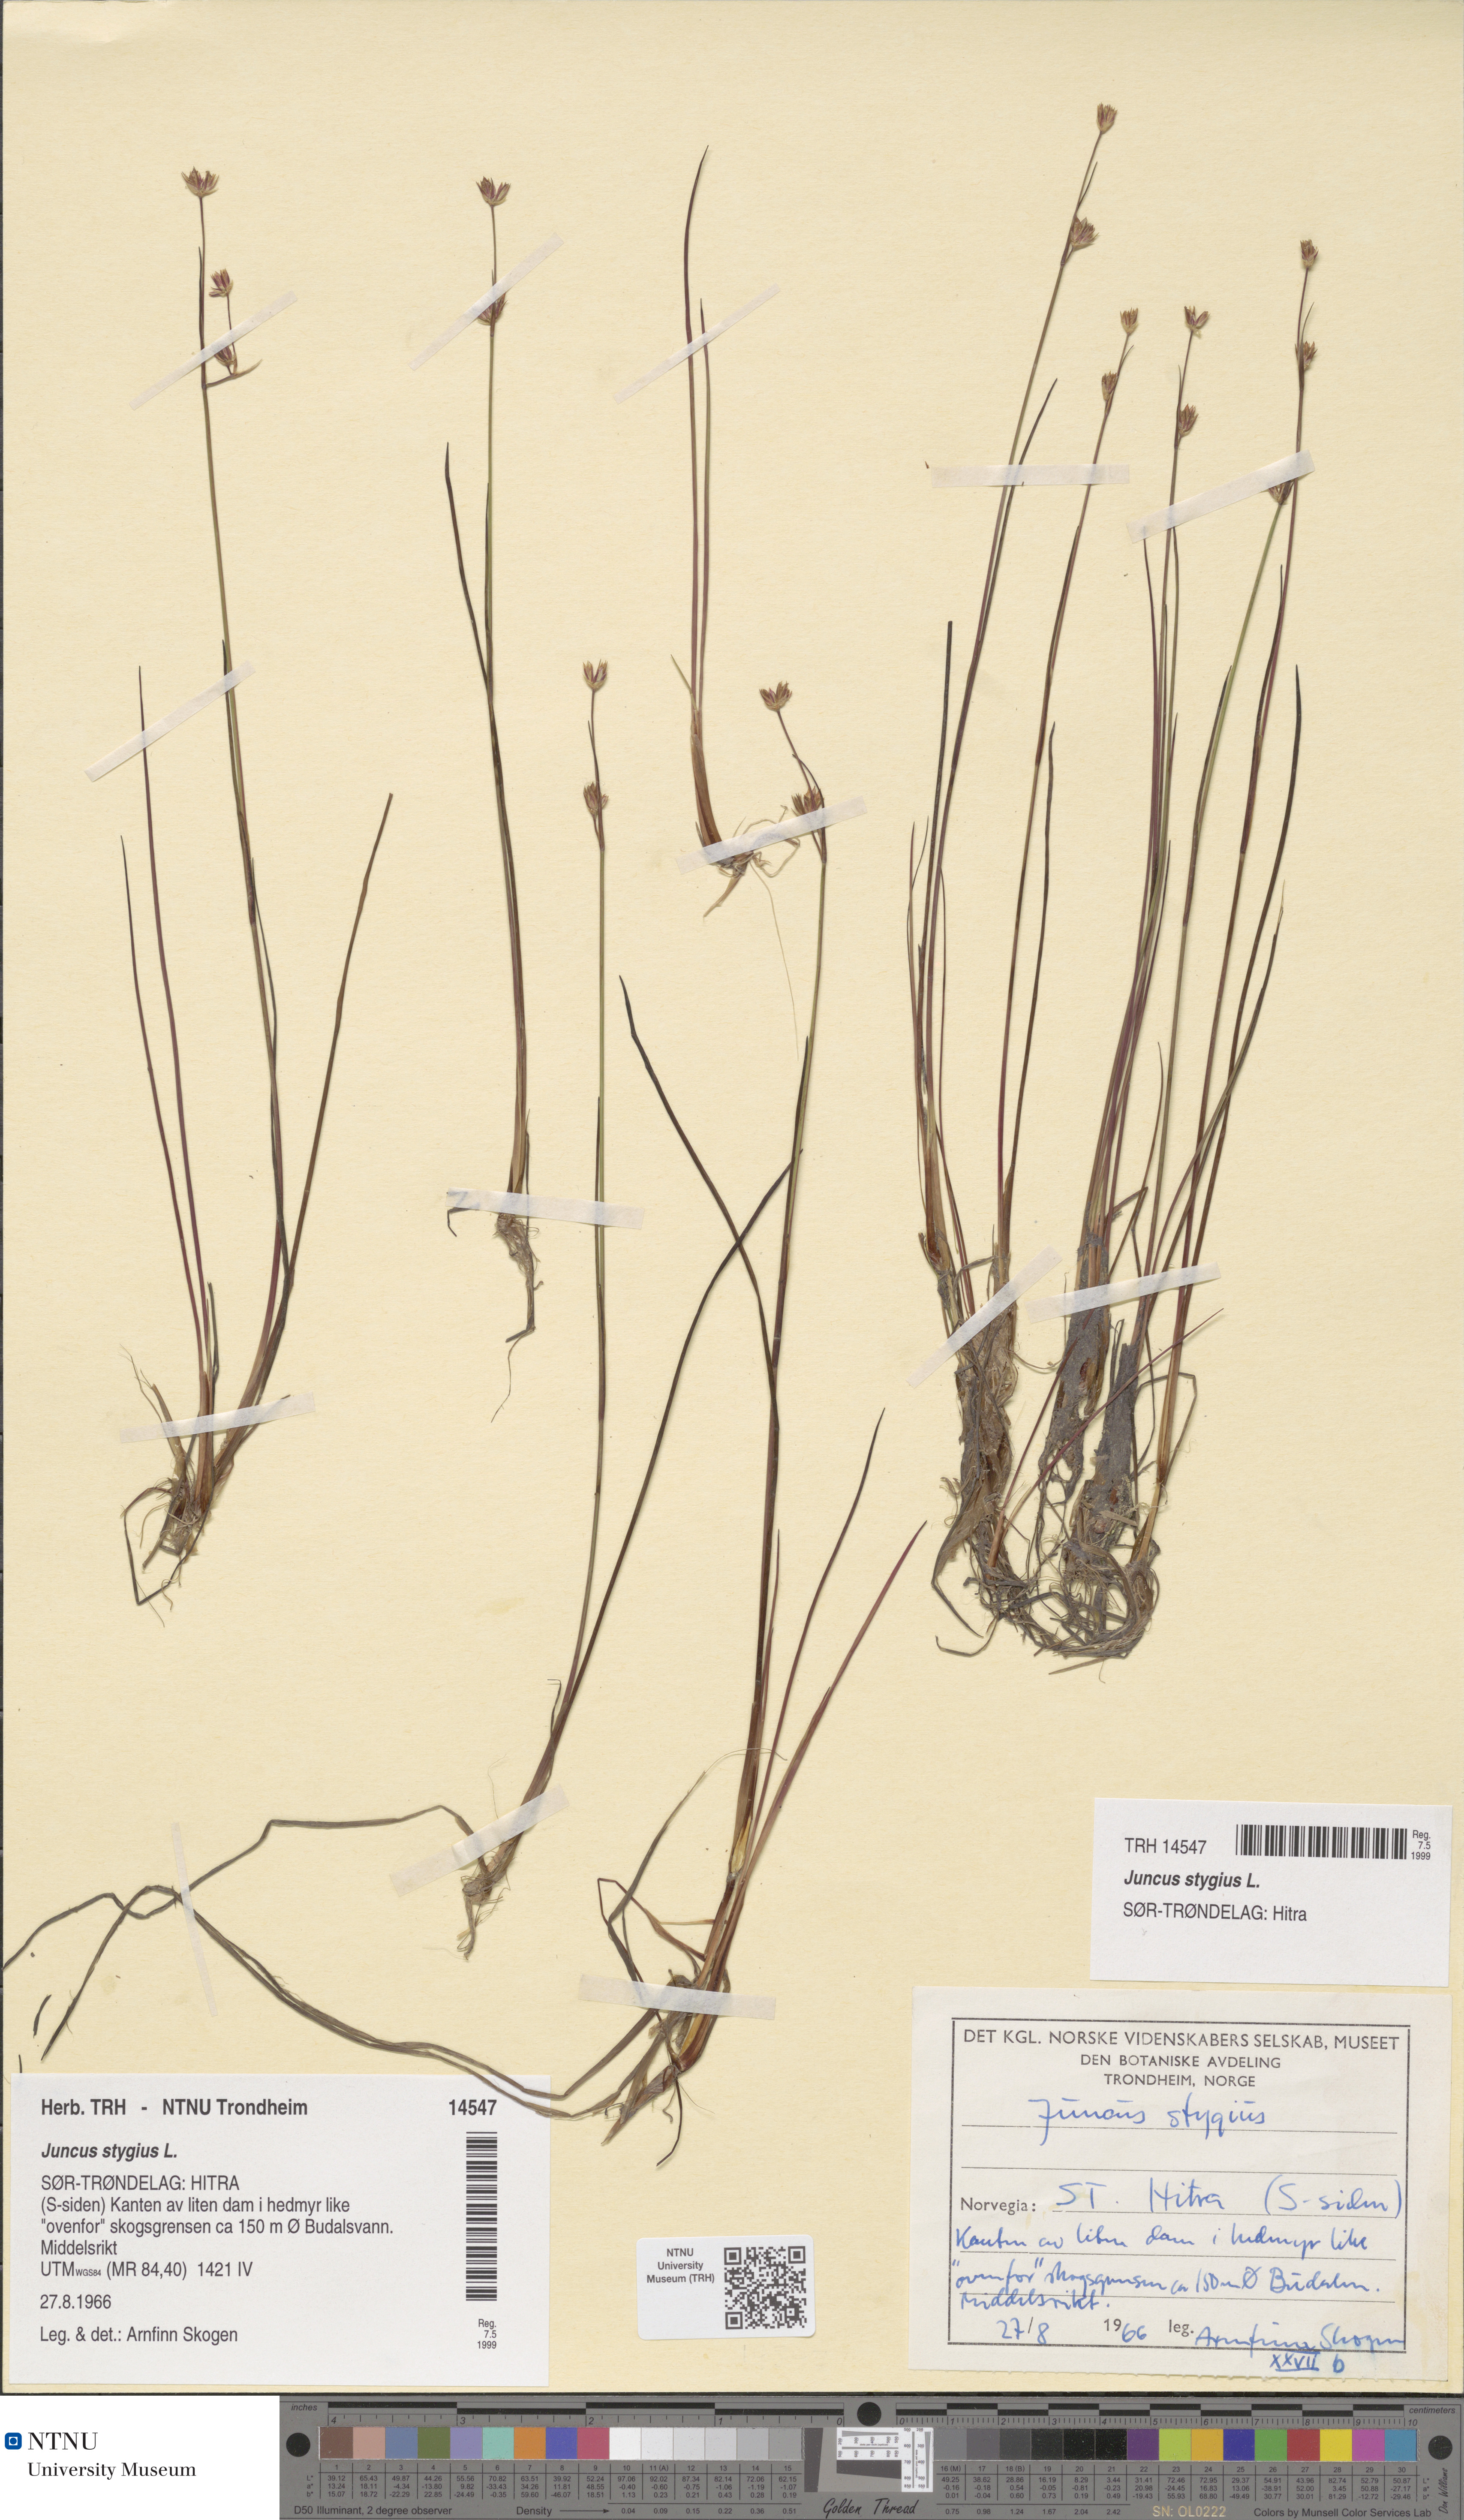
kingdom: Plantae
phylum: Tracheophyta
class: Liliopsida
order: Poales
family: Juncaceae
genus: Juncus
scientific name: Juncus stygius
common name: Bog rush
